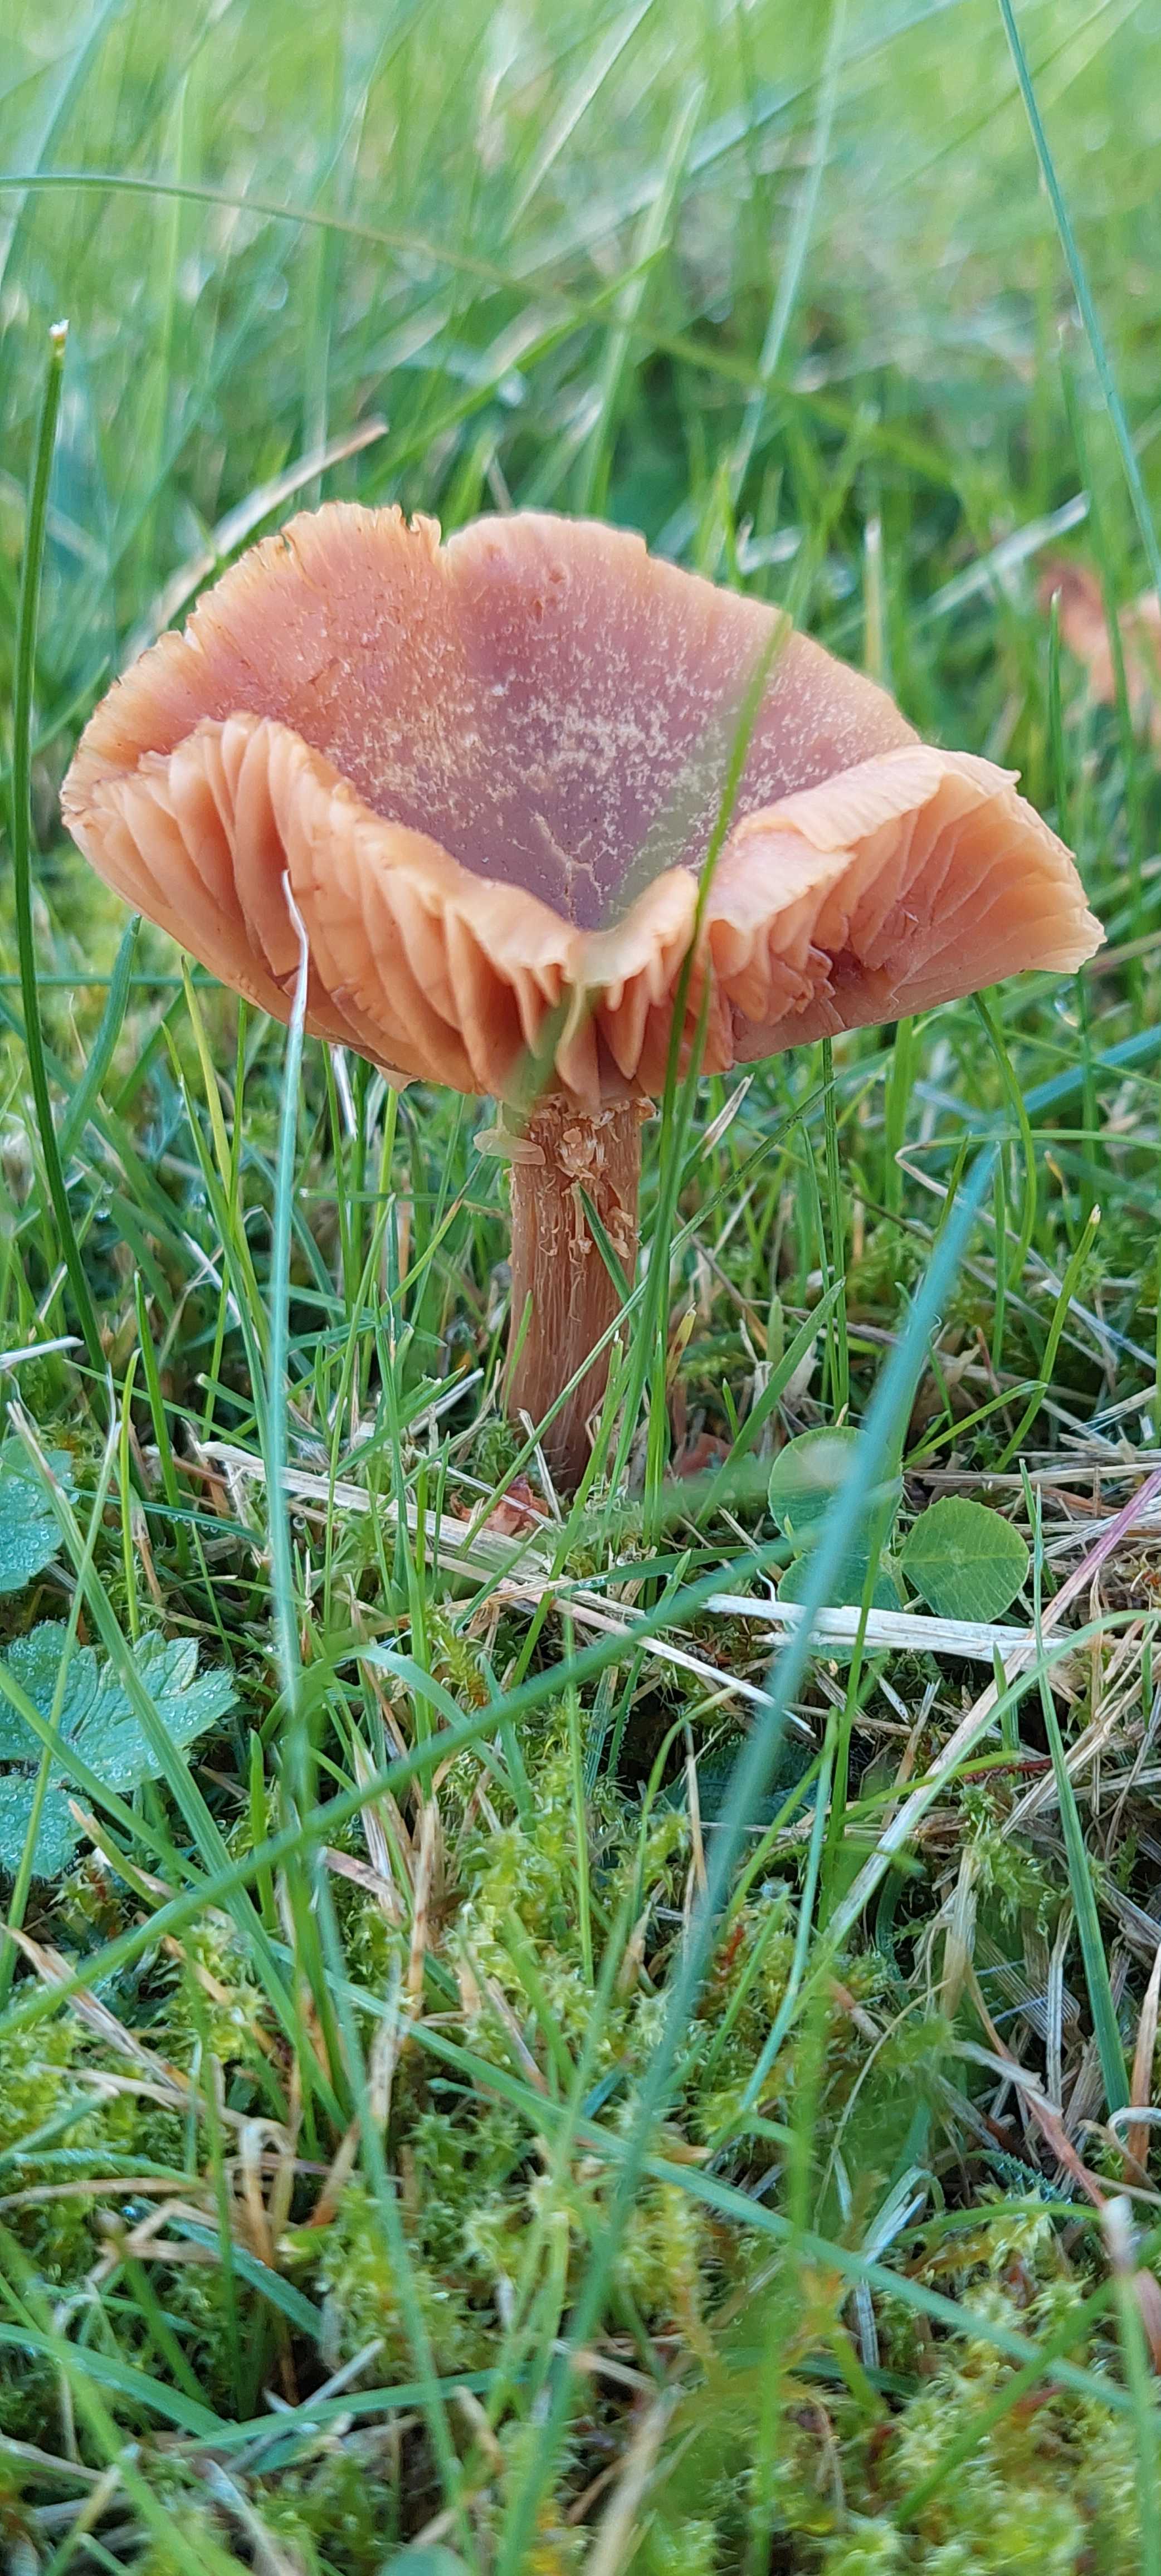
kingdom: Fungi
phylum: Basidiomycota
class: Agaricomycetes
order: Agaricales
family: Hydnangiaceae
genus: Laccaria
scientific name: Laccaria
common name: ametysthat
